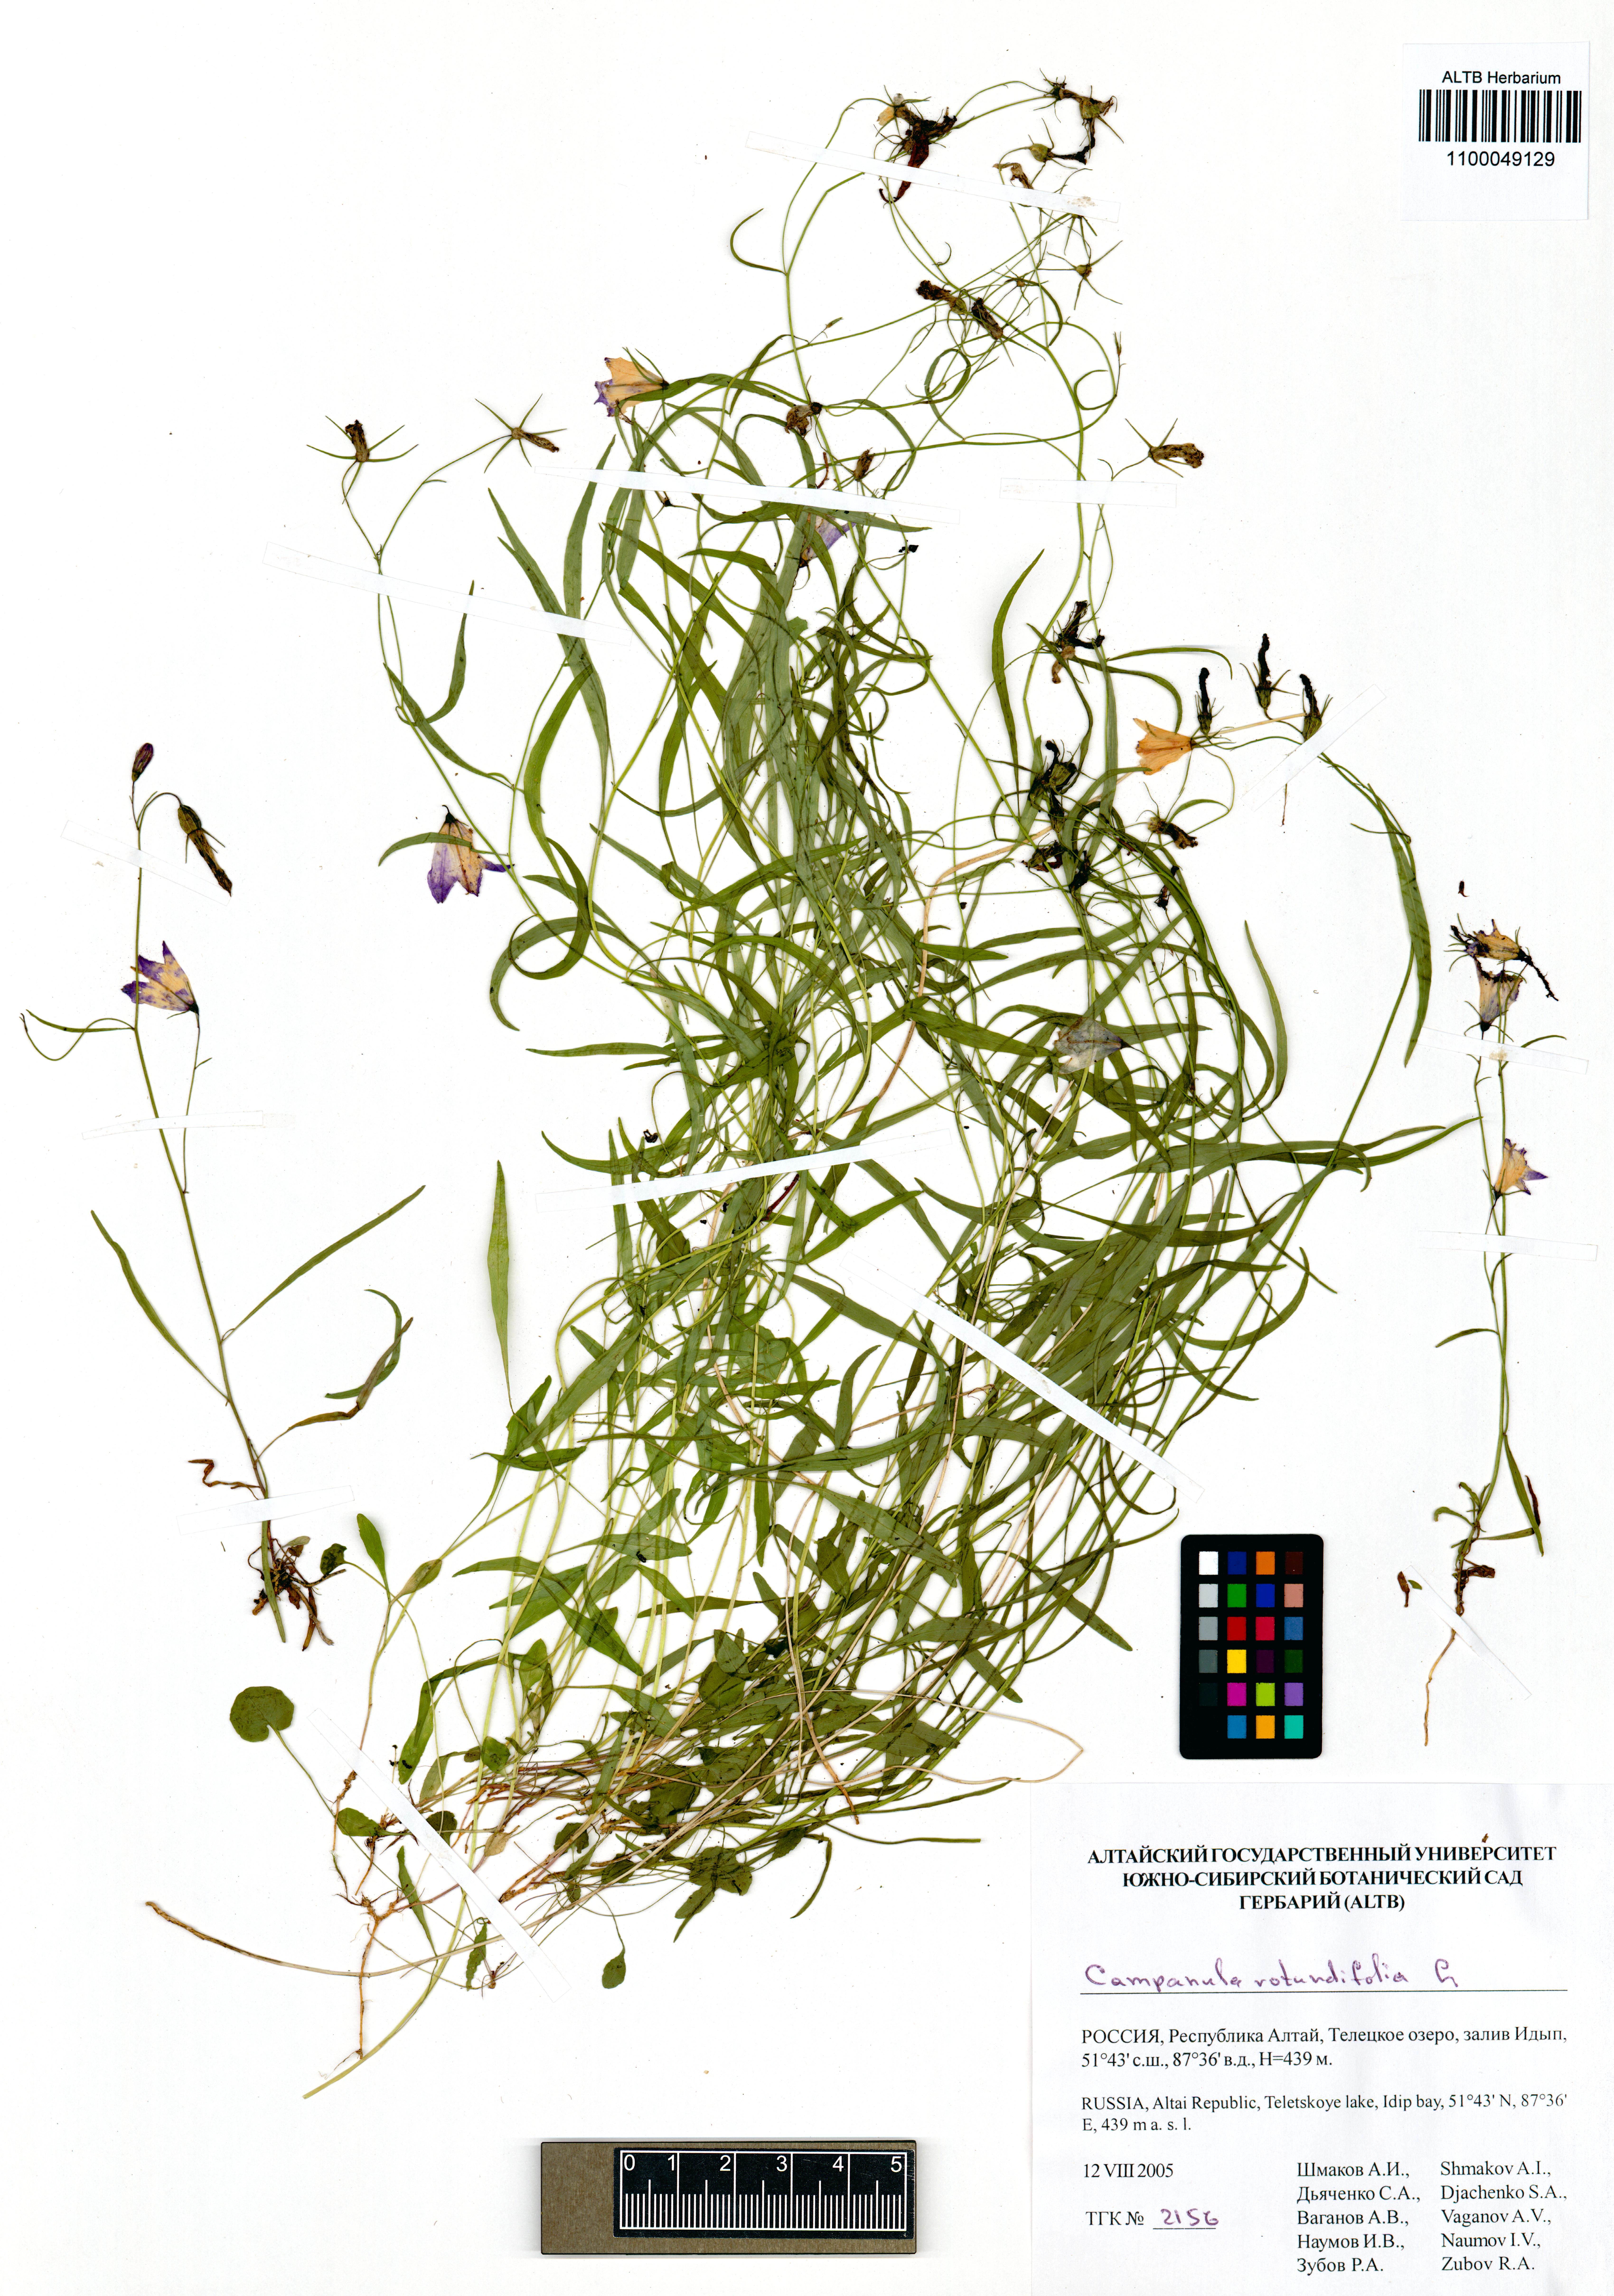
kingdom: Plantae
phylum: Tracheophyta
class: Magnoliopsida
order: Asterales
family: Campanulaceae
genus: Campanula
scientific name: Campanula rotundifolia
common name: Harebell
